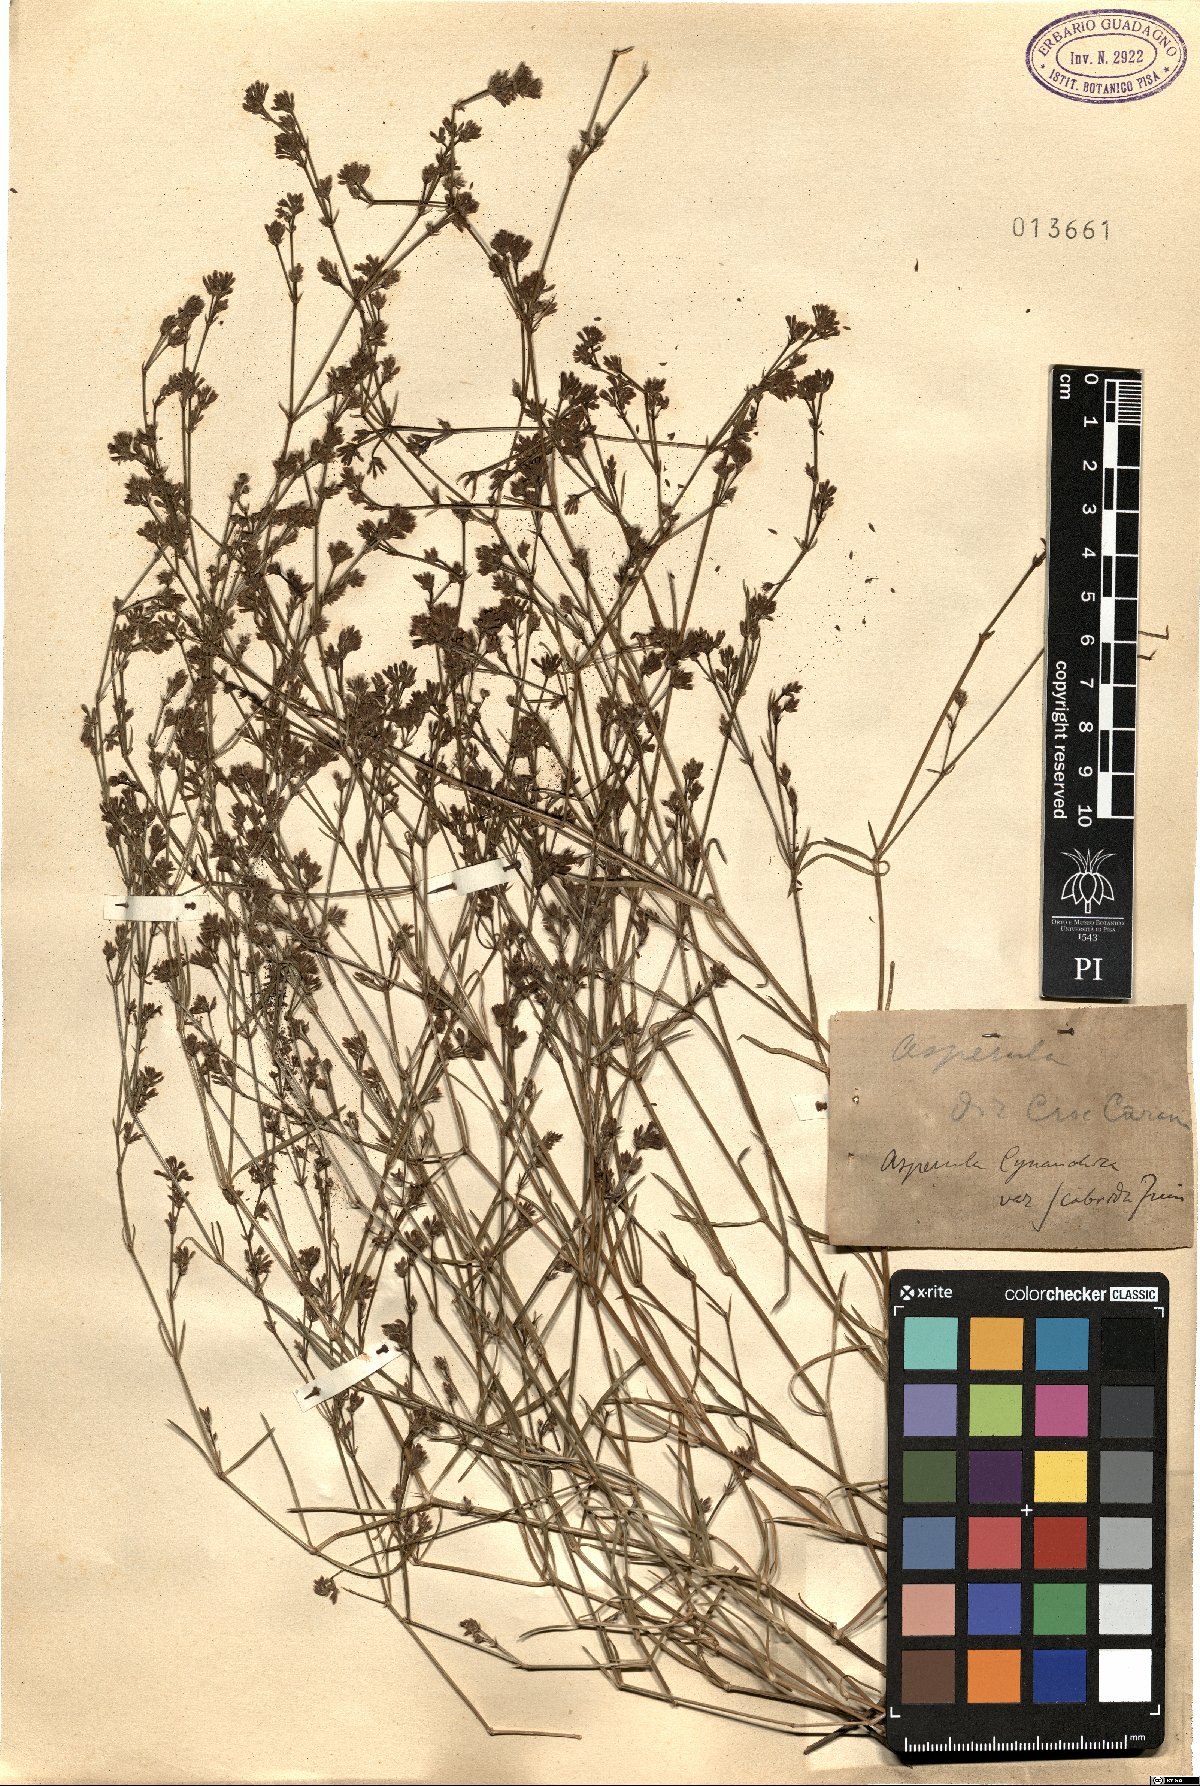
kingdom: Plantae
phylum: Tracheophyta
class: Magnoliopsida
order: Gentianales
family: Rubiaceae
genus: Cynanchica
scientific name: Cynanchica pyrenaica
